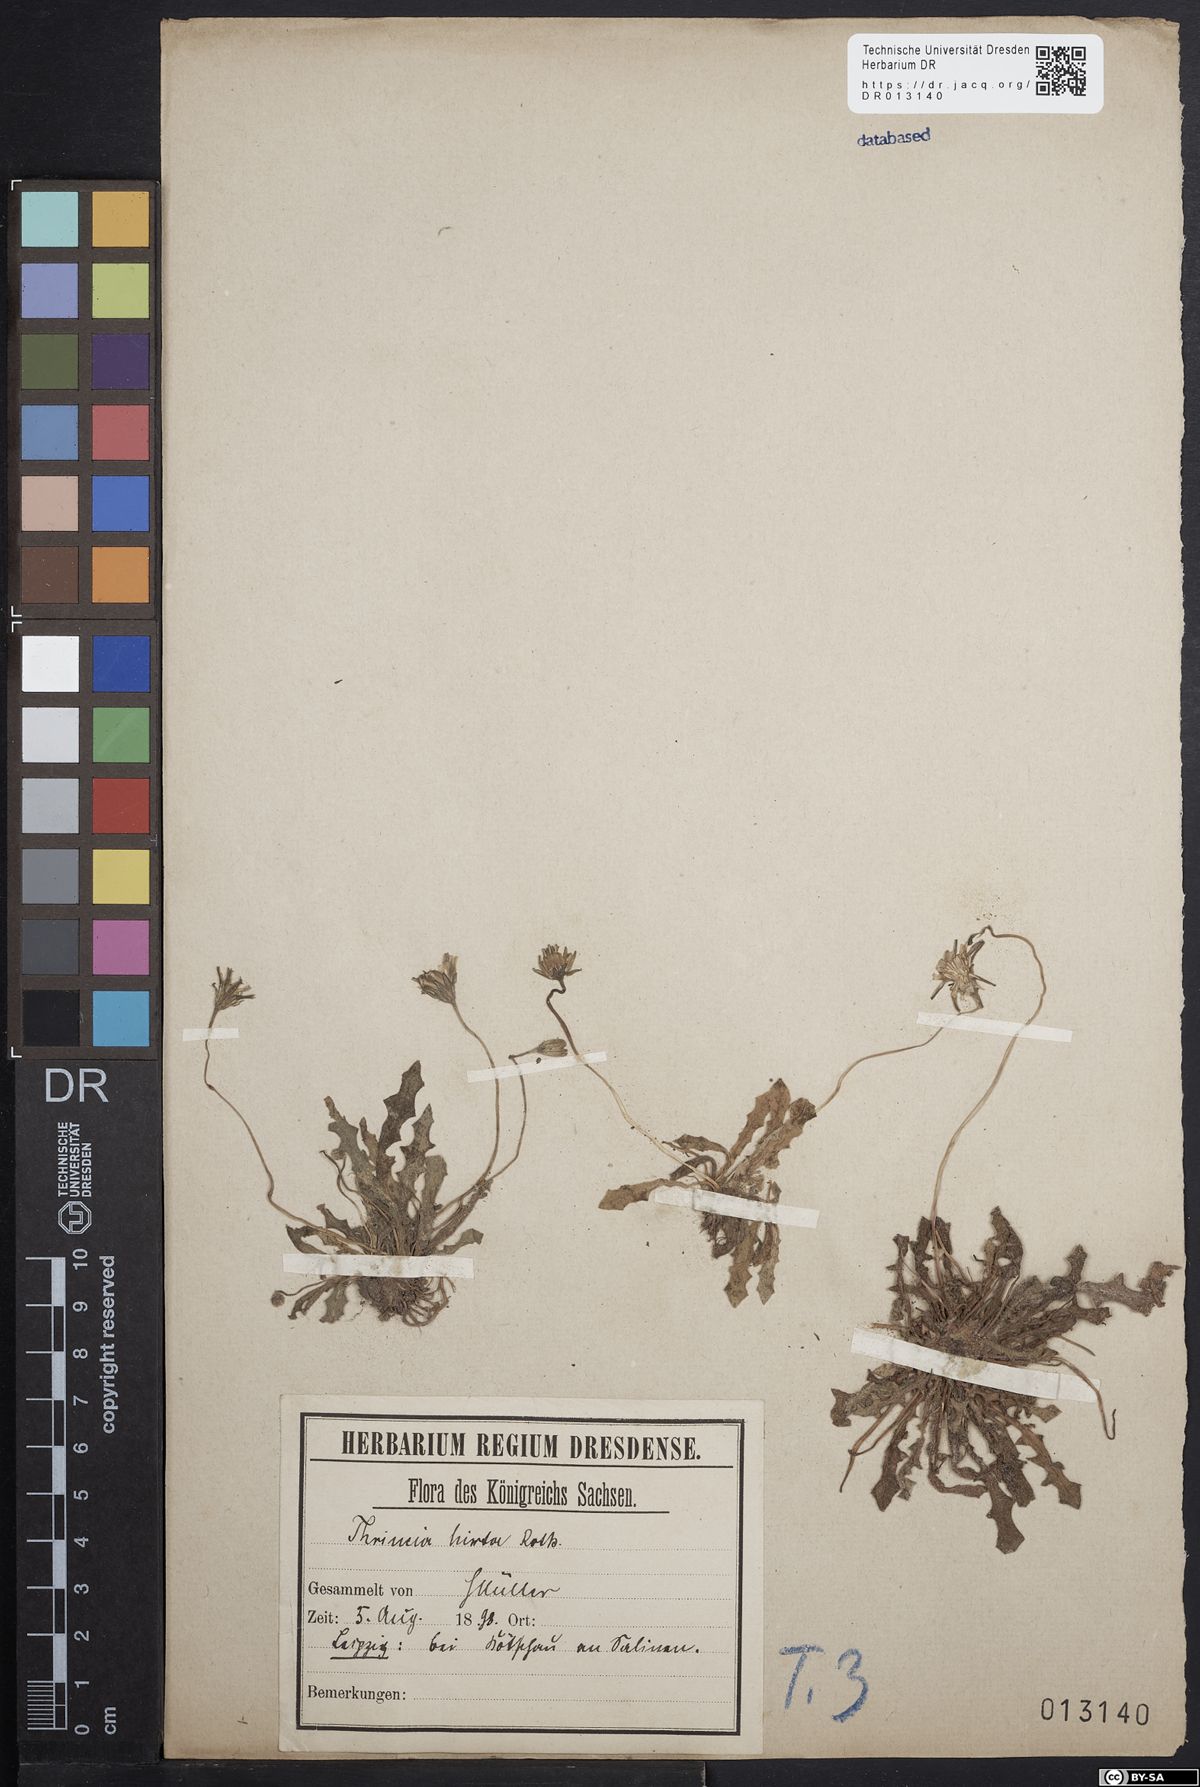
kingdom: Plantae
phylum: Tracheophyta
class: Magnoliopsida
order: Asterales
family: Asteraceae
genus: Thrincia
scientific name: Thrincia saxatilis
